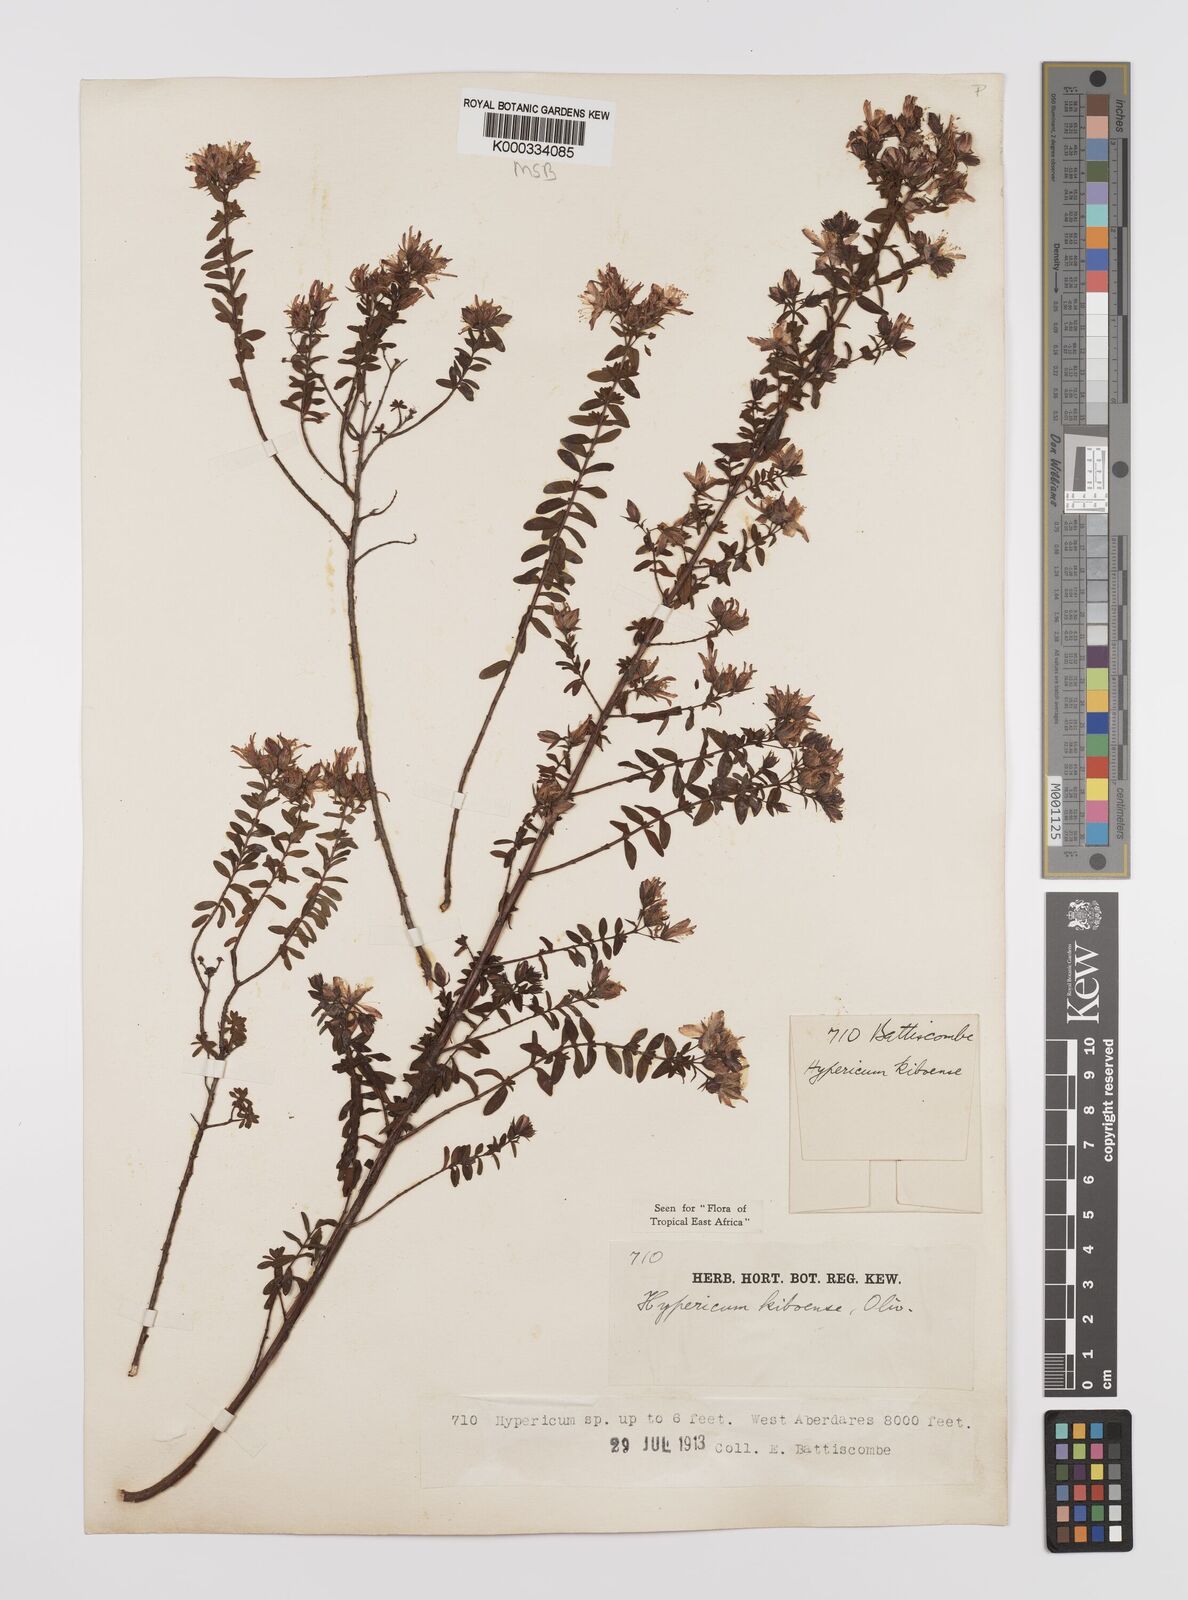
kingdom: Plantae
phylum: Tracheophyta
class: Magnoliopsida
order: Malpighiales
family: Hypericaceae
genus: Hypericum
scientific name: Hypericum kiboense
